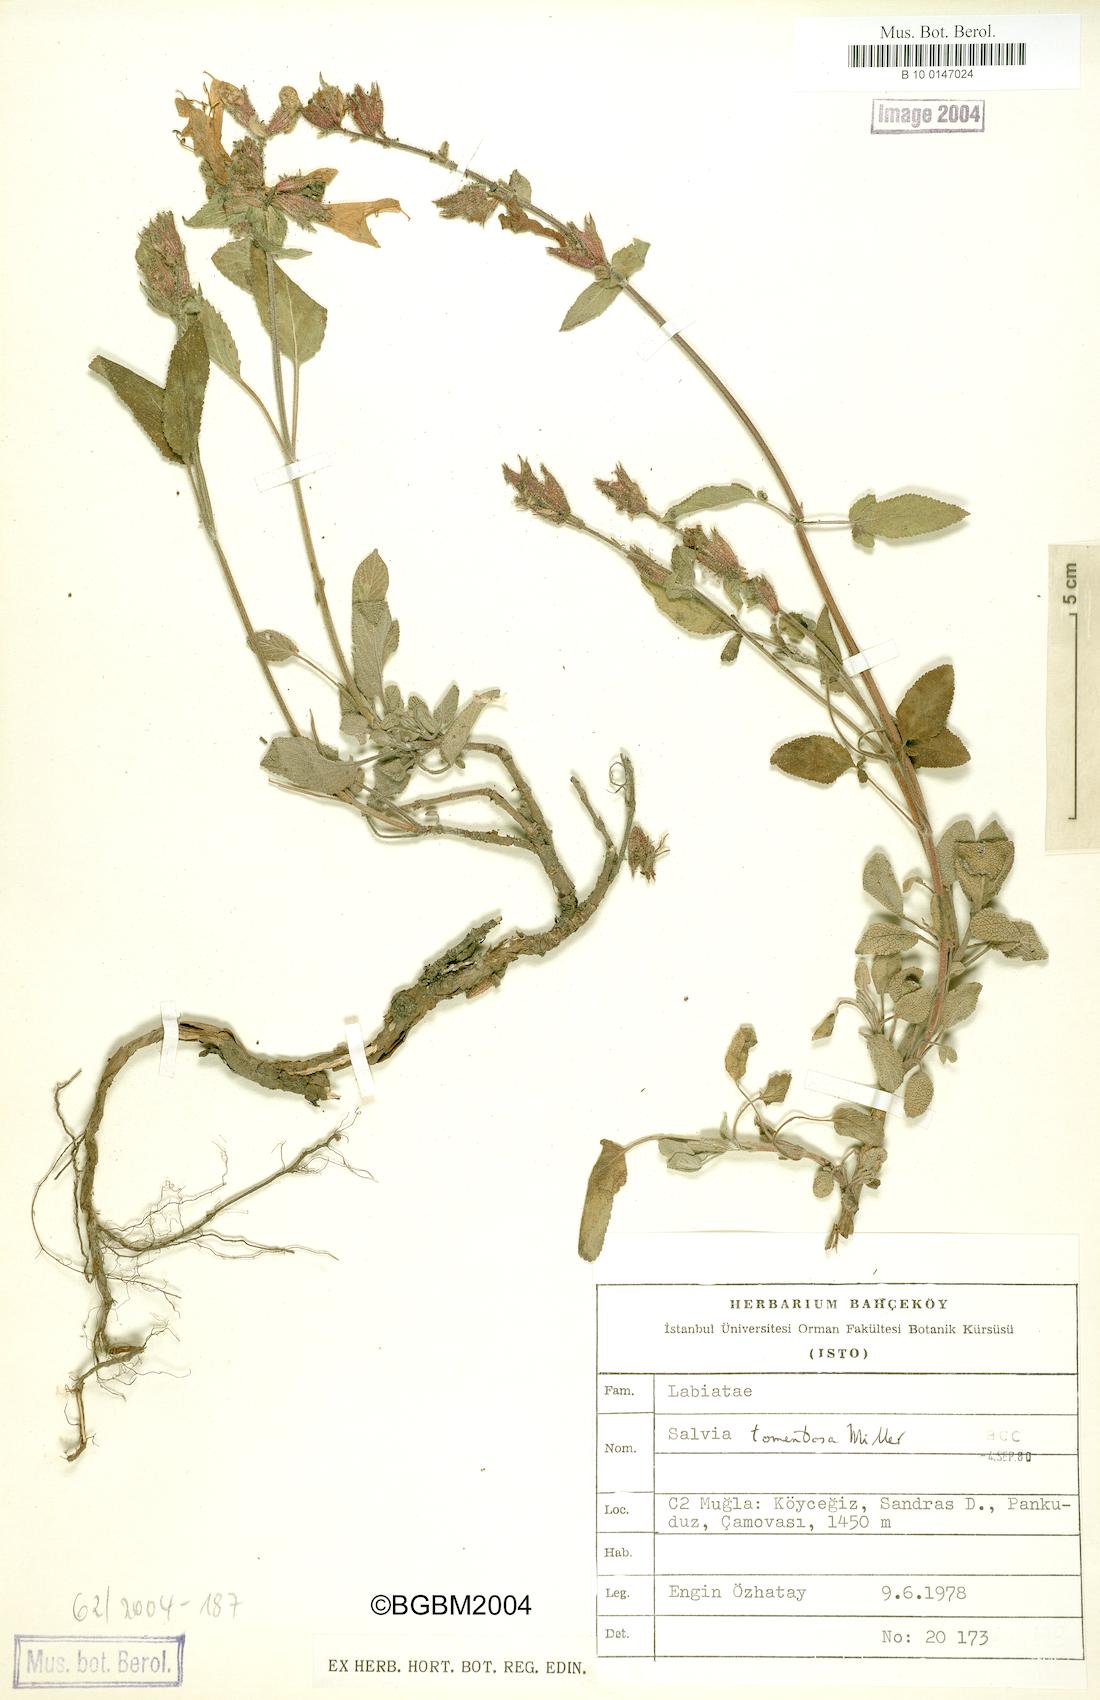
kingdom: Plantae
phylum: Tracheophyta
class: Magnoliopsida
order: Lamiales
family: Lamiaceae
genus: Salvia
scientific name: Salvia tomentosa
